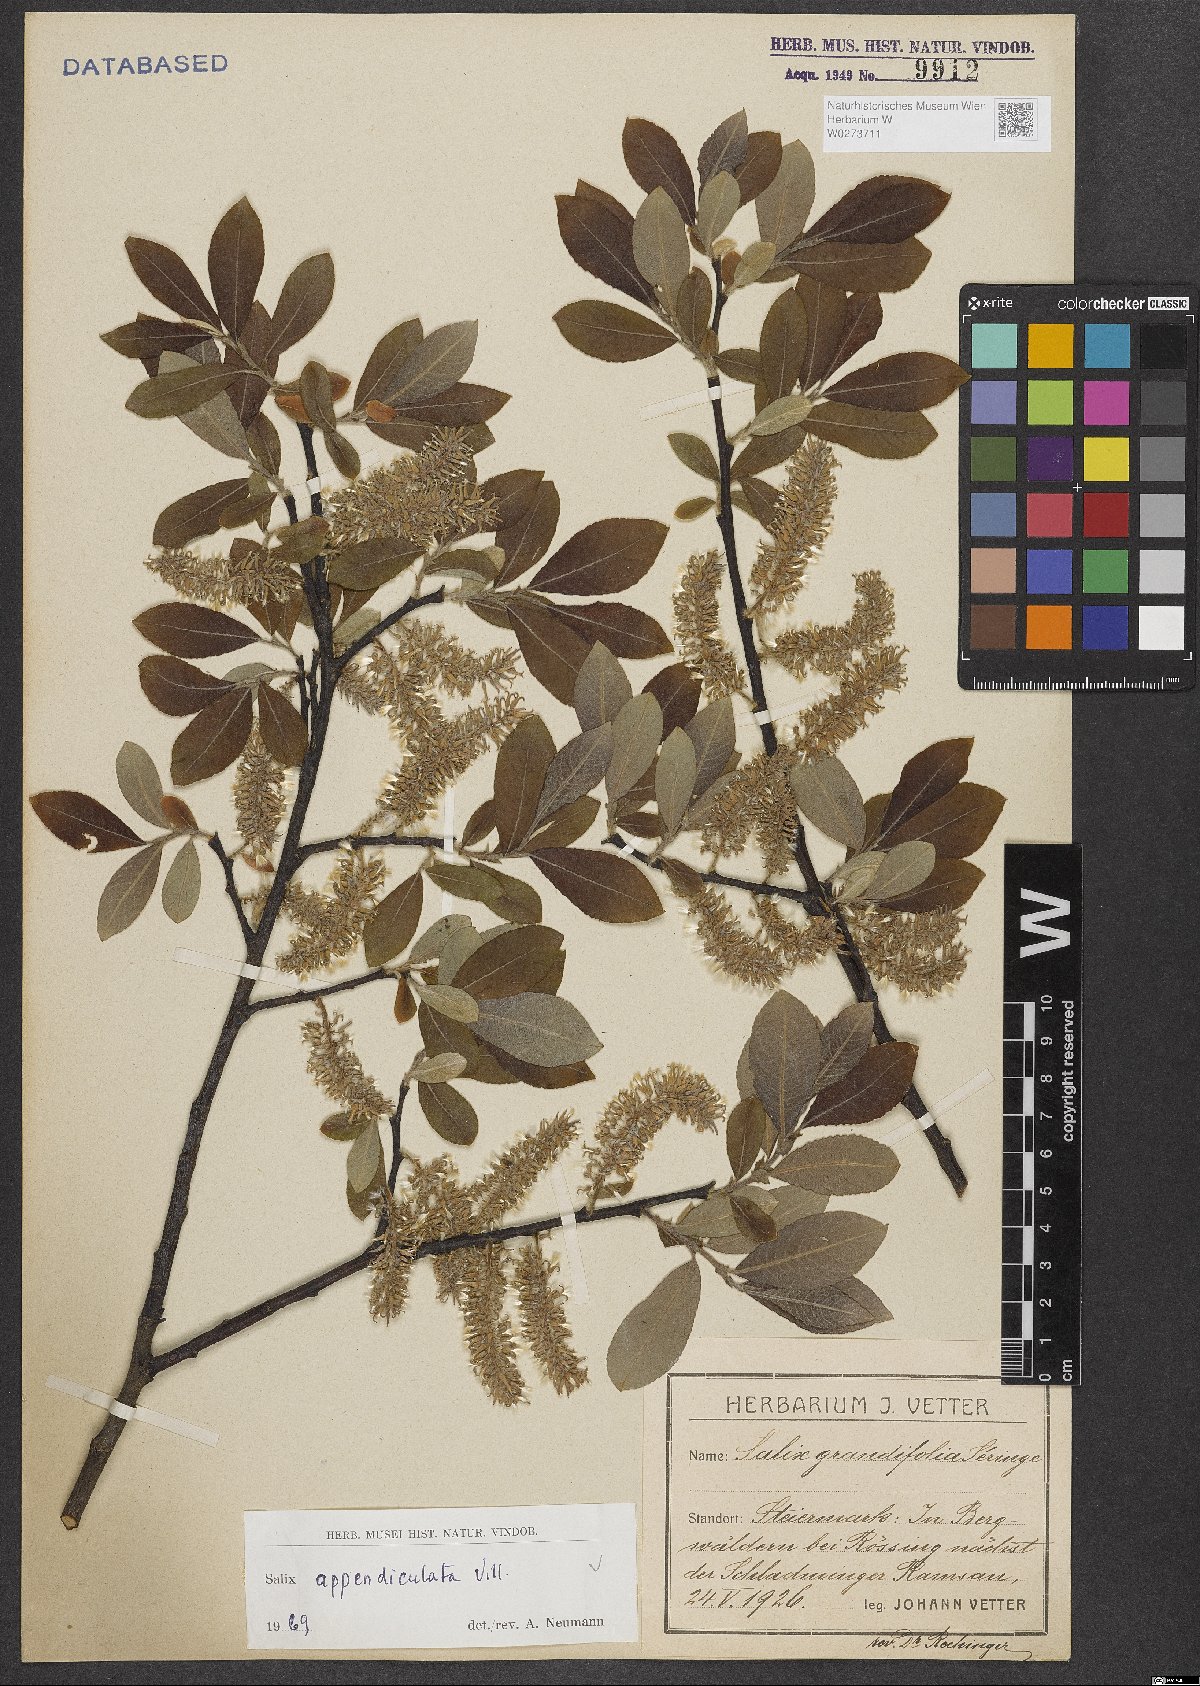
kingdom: Plantae
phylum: Tracheophyta
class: Magnoliopsida
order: Malpighiales
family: Salicaceae
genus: Salix
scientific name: Salix appendiculata
